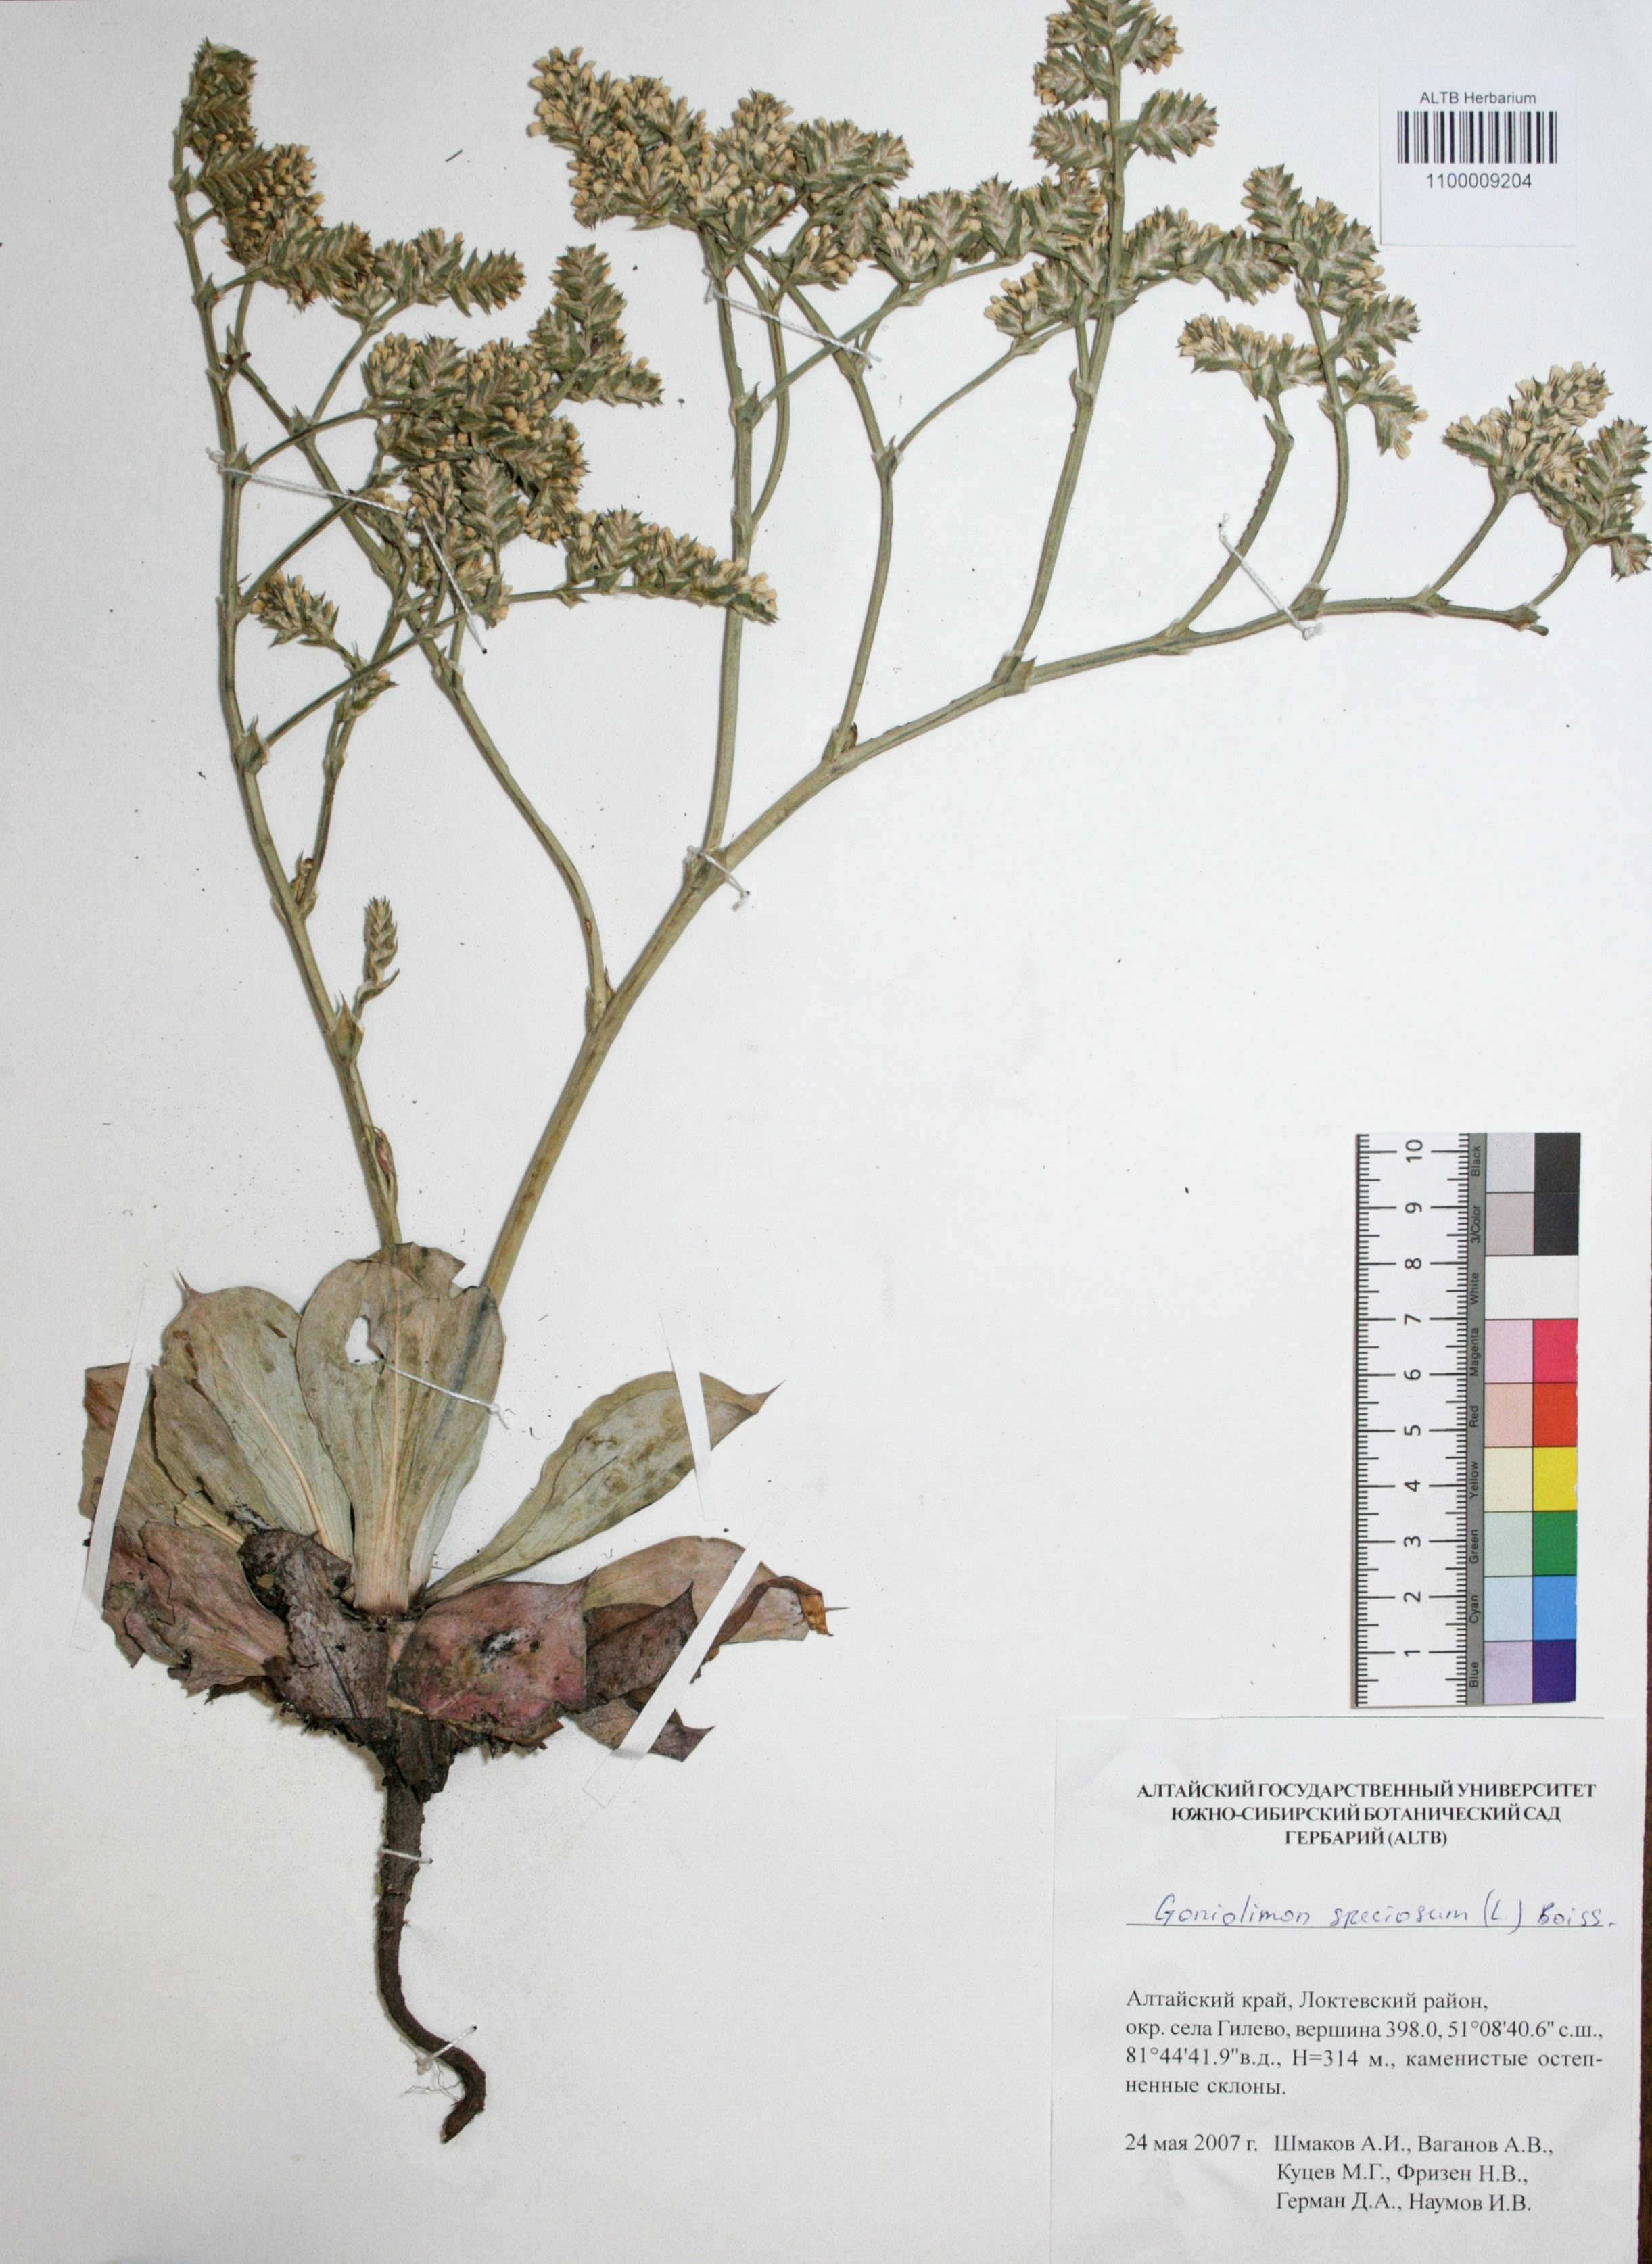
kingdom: Plantae
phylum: Tracheophyta
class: Magnoliopsida
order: Caryophyllales
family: Plumbaginaceae
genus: Goniolimon
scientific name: Goniolimon speciosum
